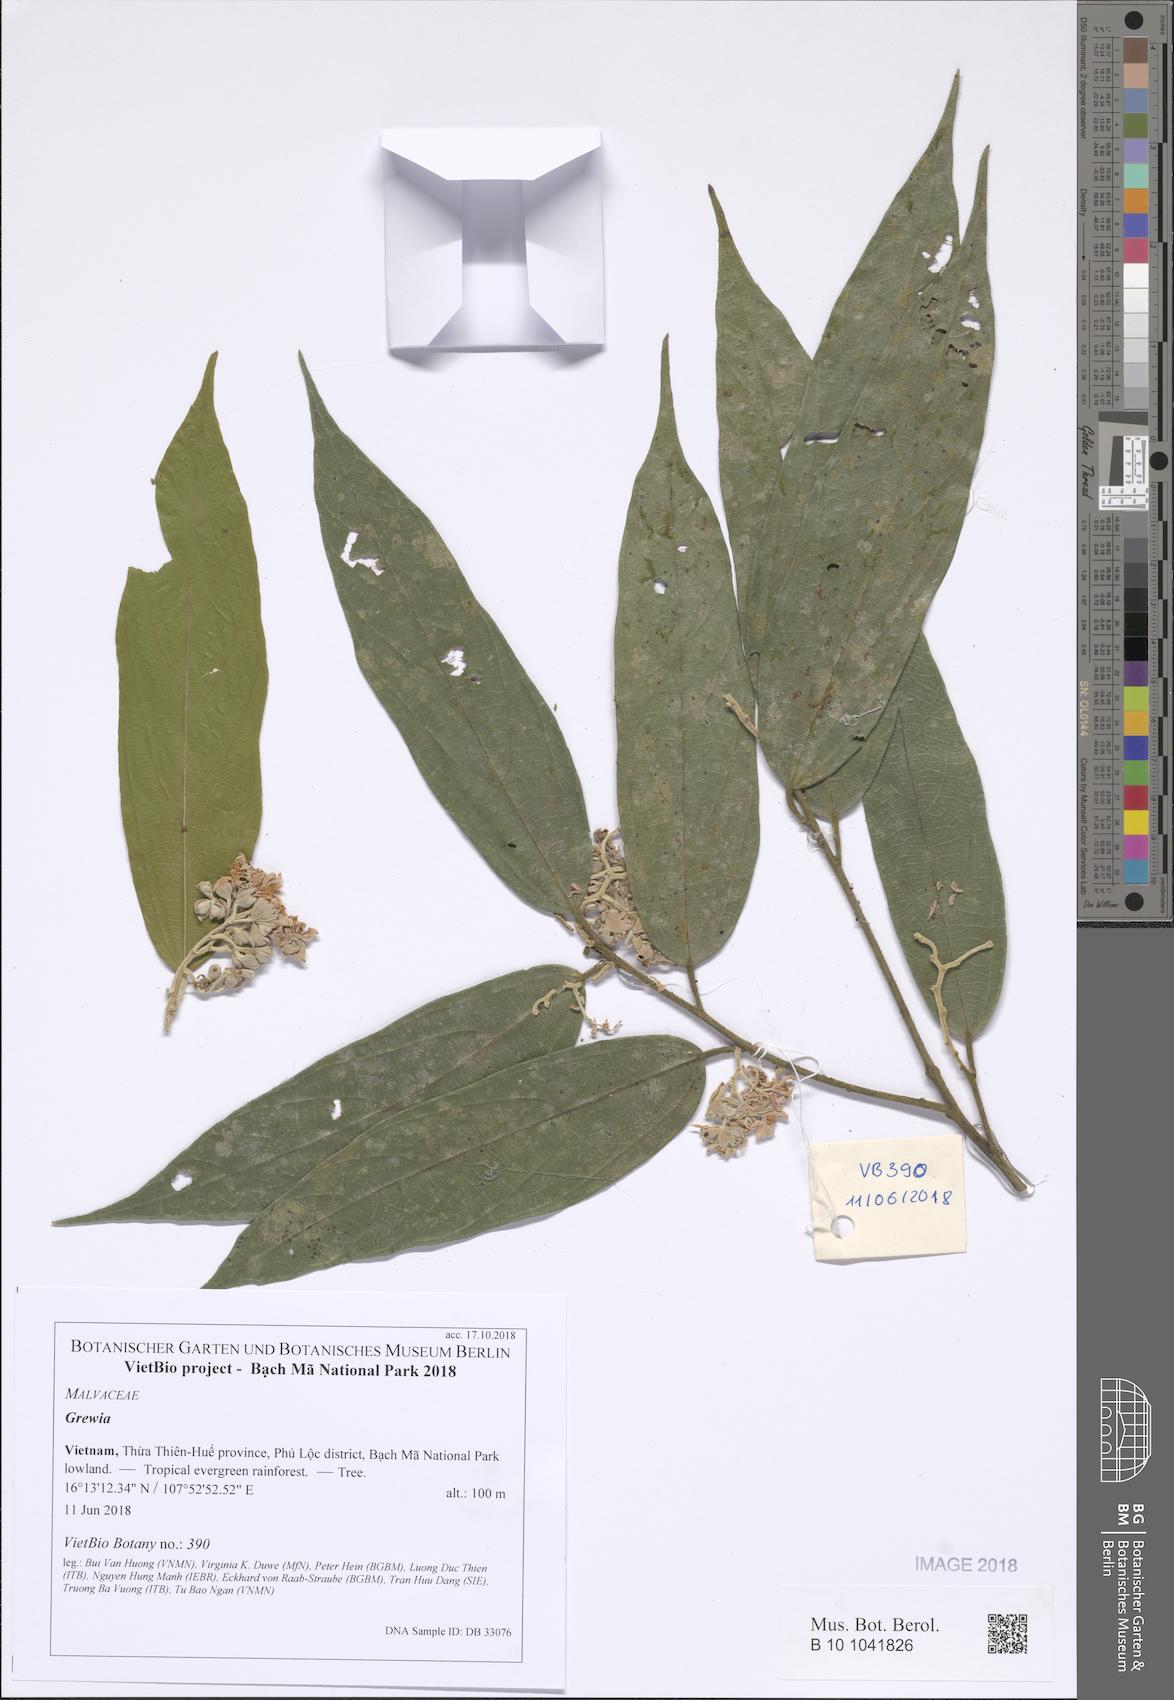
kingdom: Plantae
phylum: Tracheophyta
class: Magnoliopsida
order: Malvales
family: Malvaceae
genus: Grewia
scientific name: Grewia
